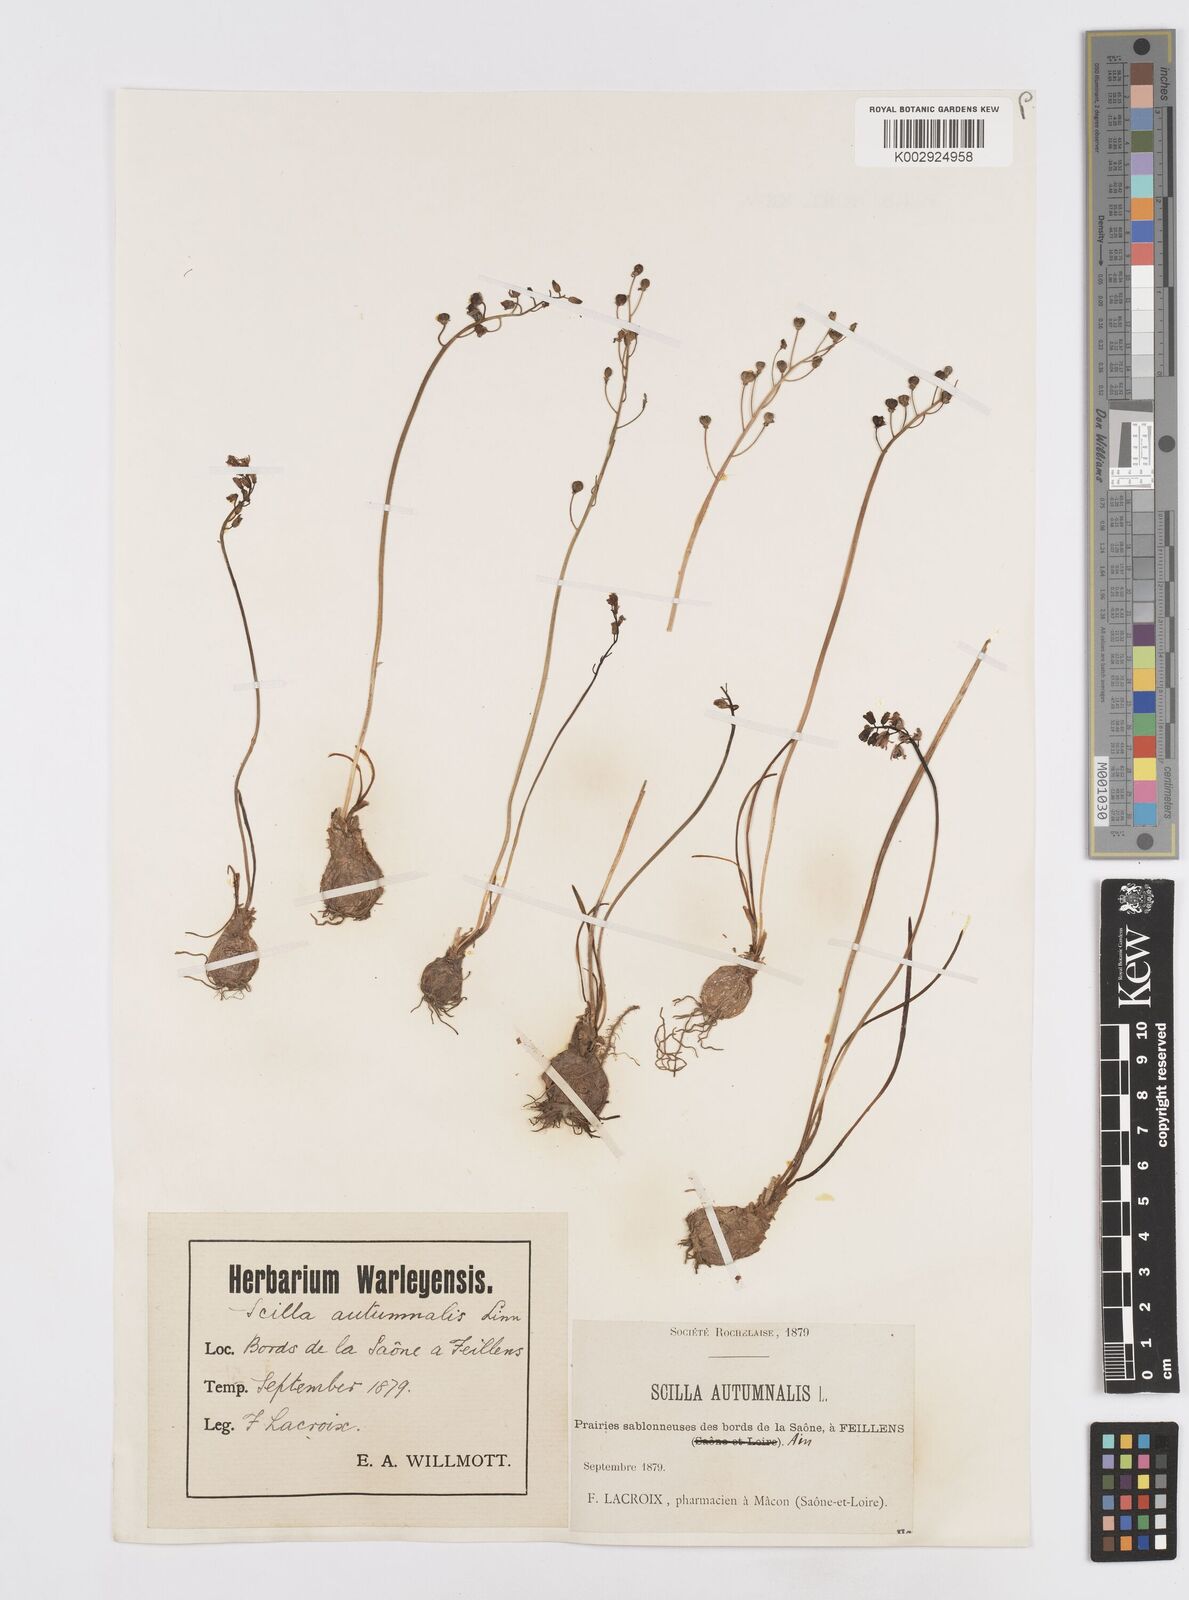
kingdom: Plantae
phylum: Tracheophyta
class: Liliopsida
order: Asparagales
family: Asparagaceae
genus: Prospero
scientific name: Prospero autumnale
